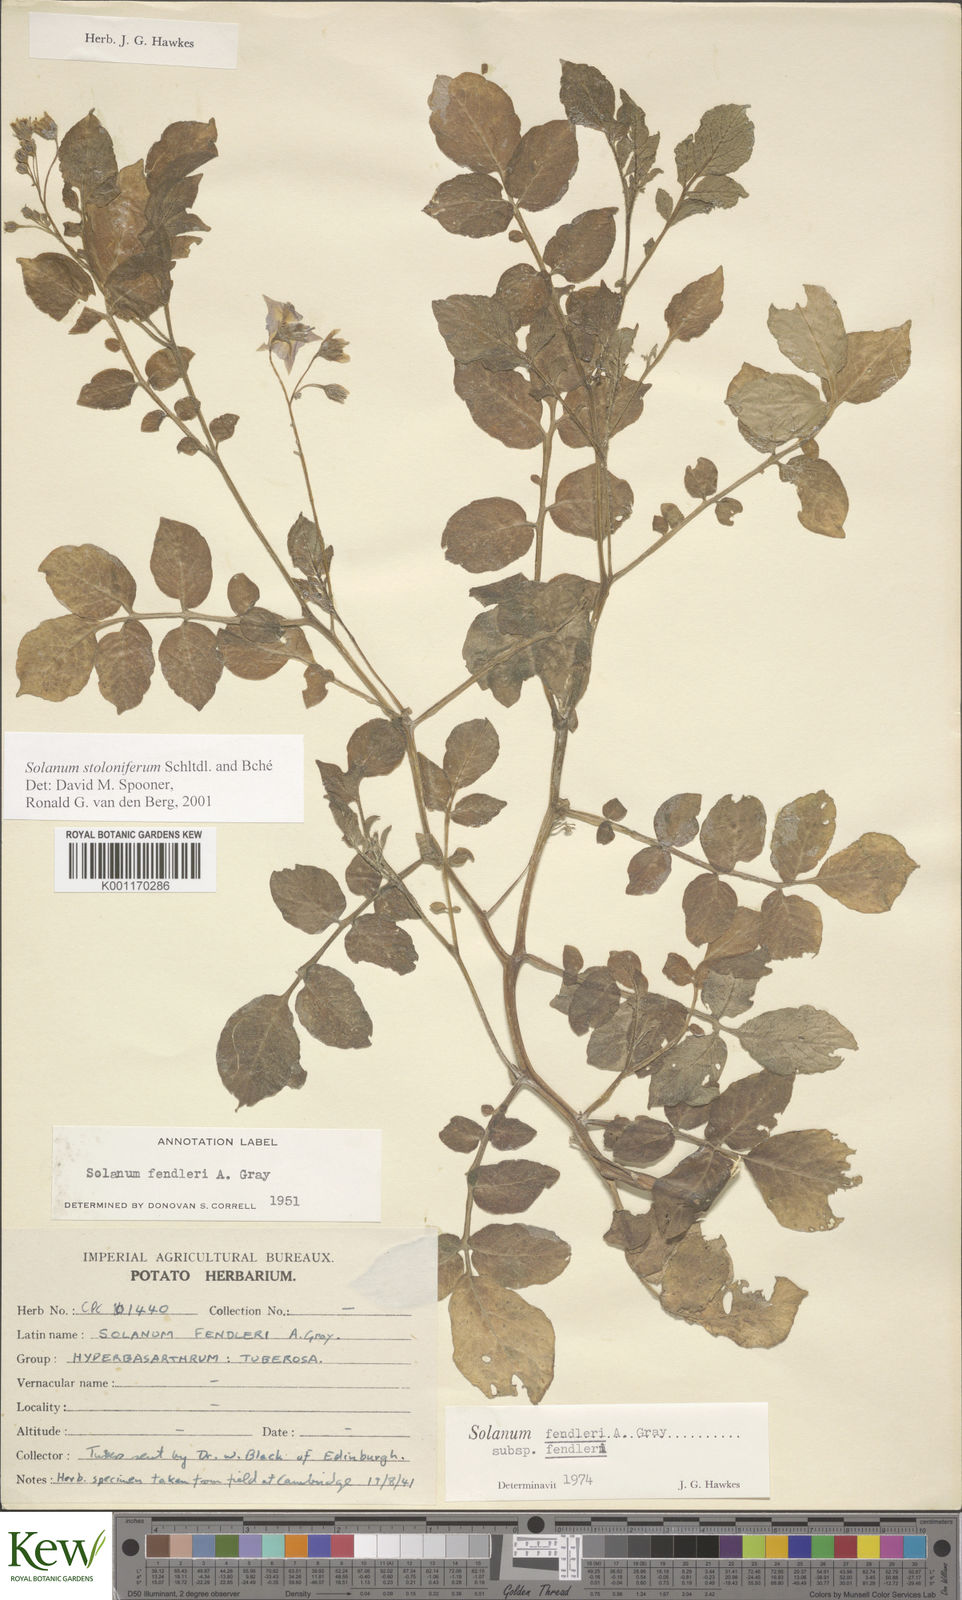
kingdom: Plantae
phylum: Tracheophyta
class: Magnoliopsida
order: Solanales
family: Solanaceae
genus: Solanum
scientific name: Solanum stoloniferum
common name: Fendler's nighshade
